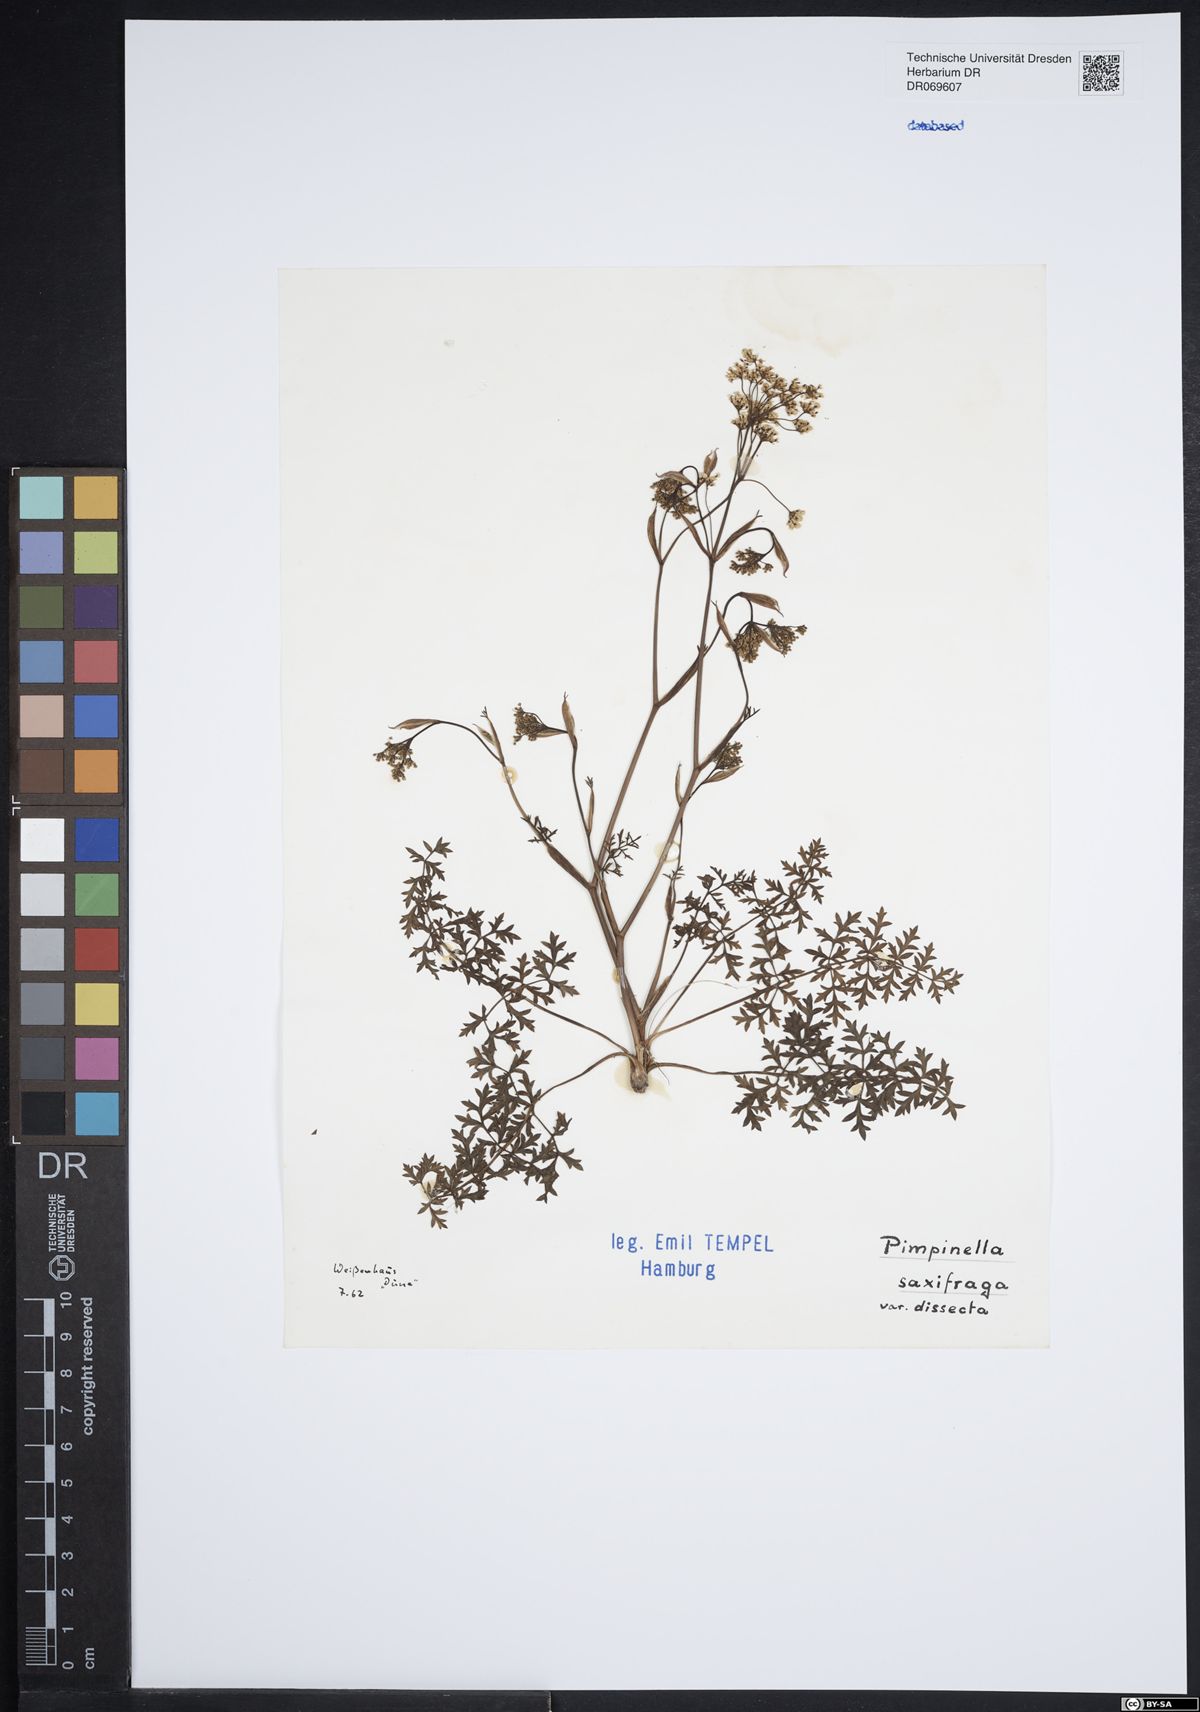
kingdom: Plantae
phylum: Tracheophyta
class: Magnoliopsida
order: Apiales
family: Apiaceae
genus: Pimpinella
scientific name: Pimpinella saxifraga
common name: Burnet-saxifrage
